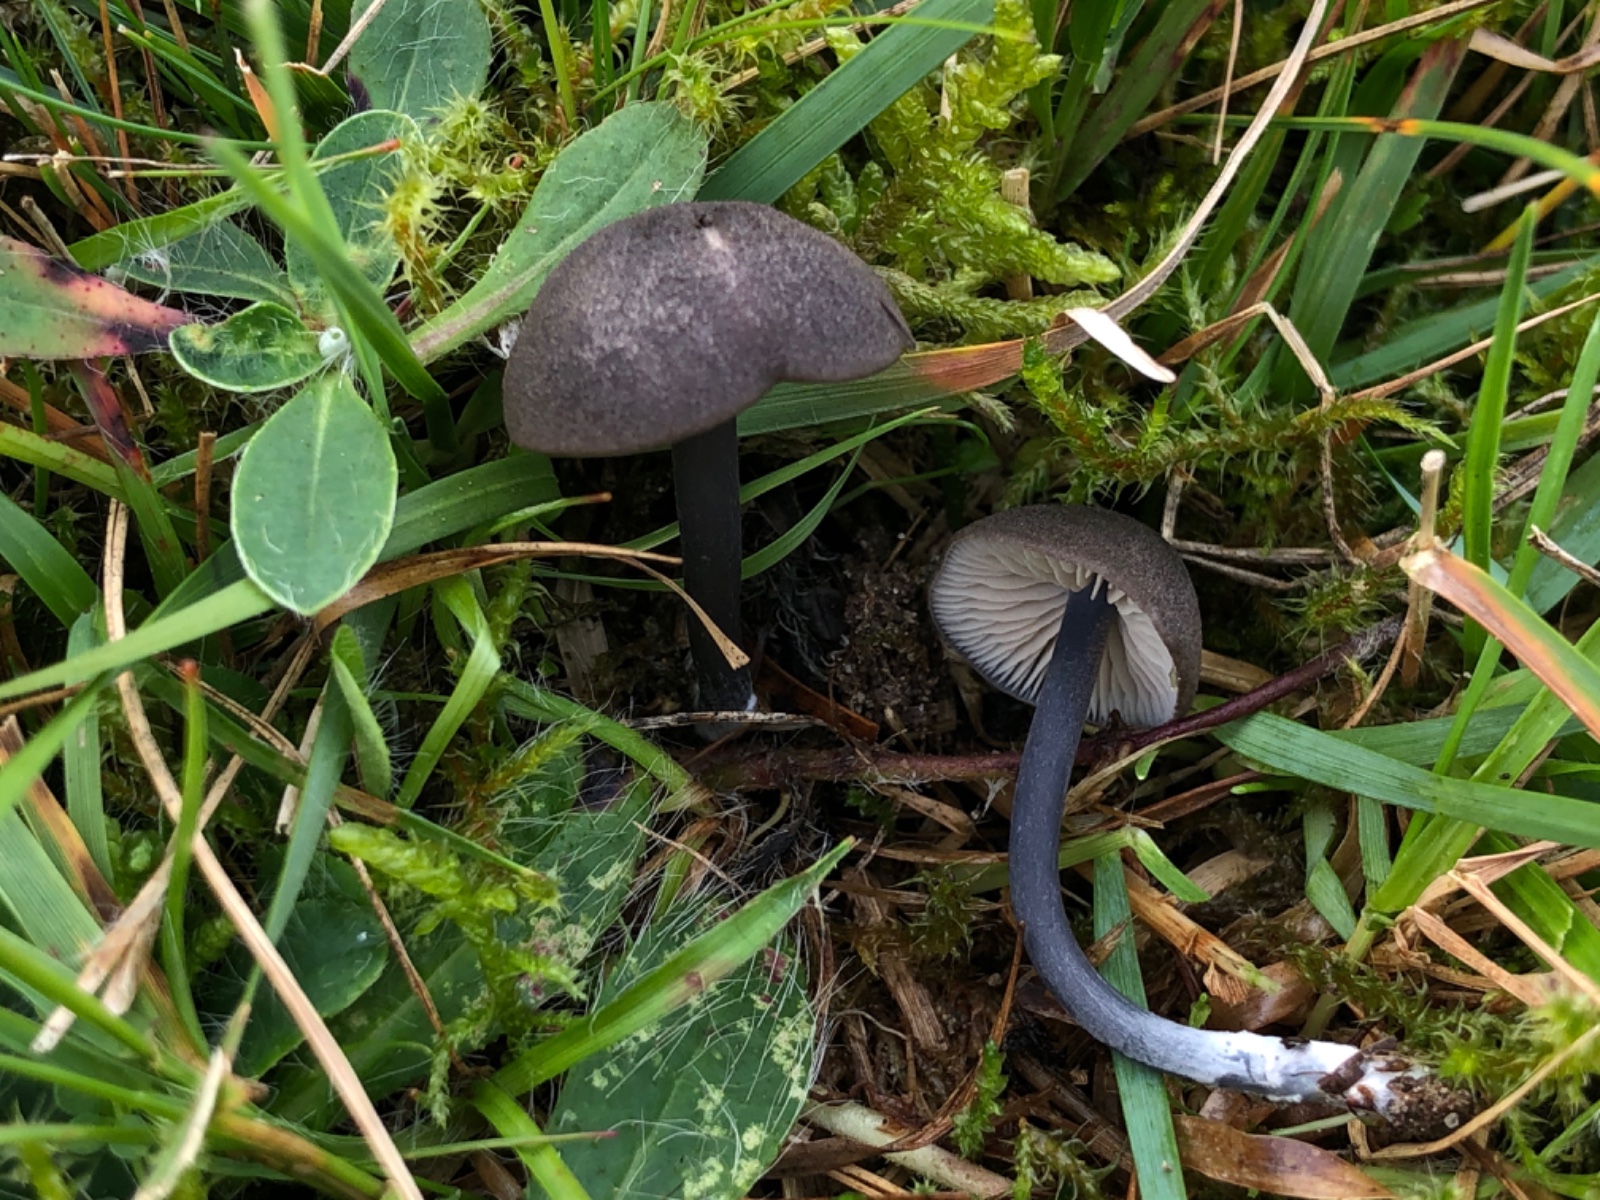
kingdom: Fungi
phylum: Basidiomycota
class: Agaricomycetes
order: Agaricales
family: Entolomataceae
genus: Entoloma
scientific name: Entoloma chalybeum
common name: blåbladet rødblad
